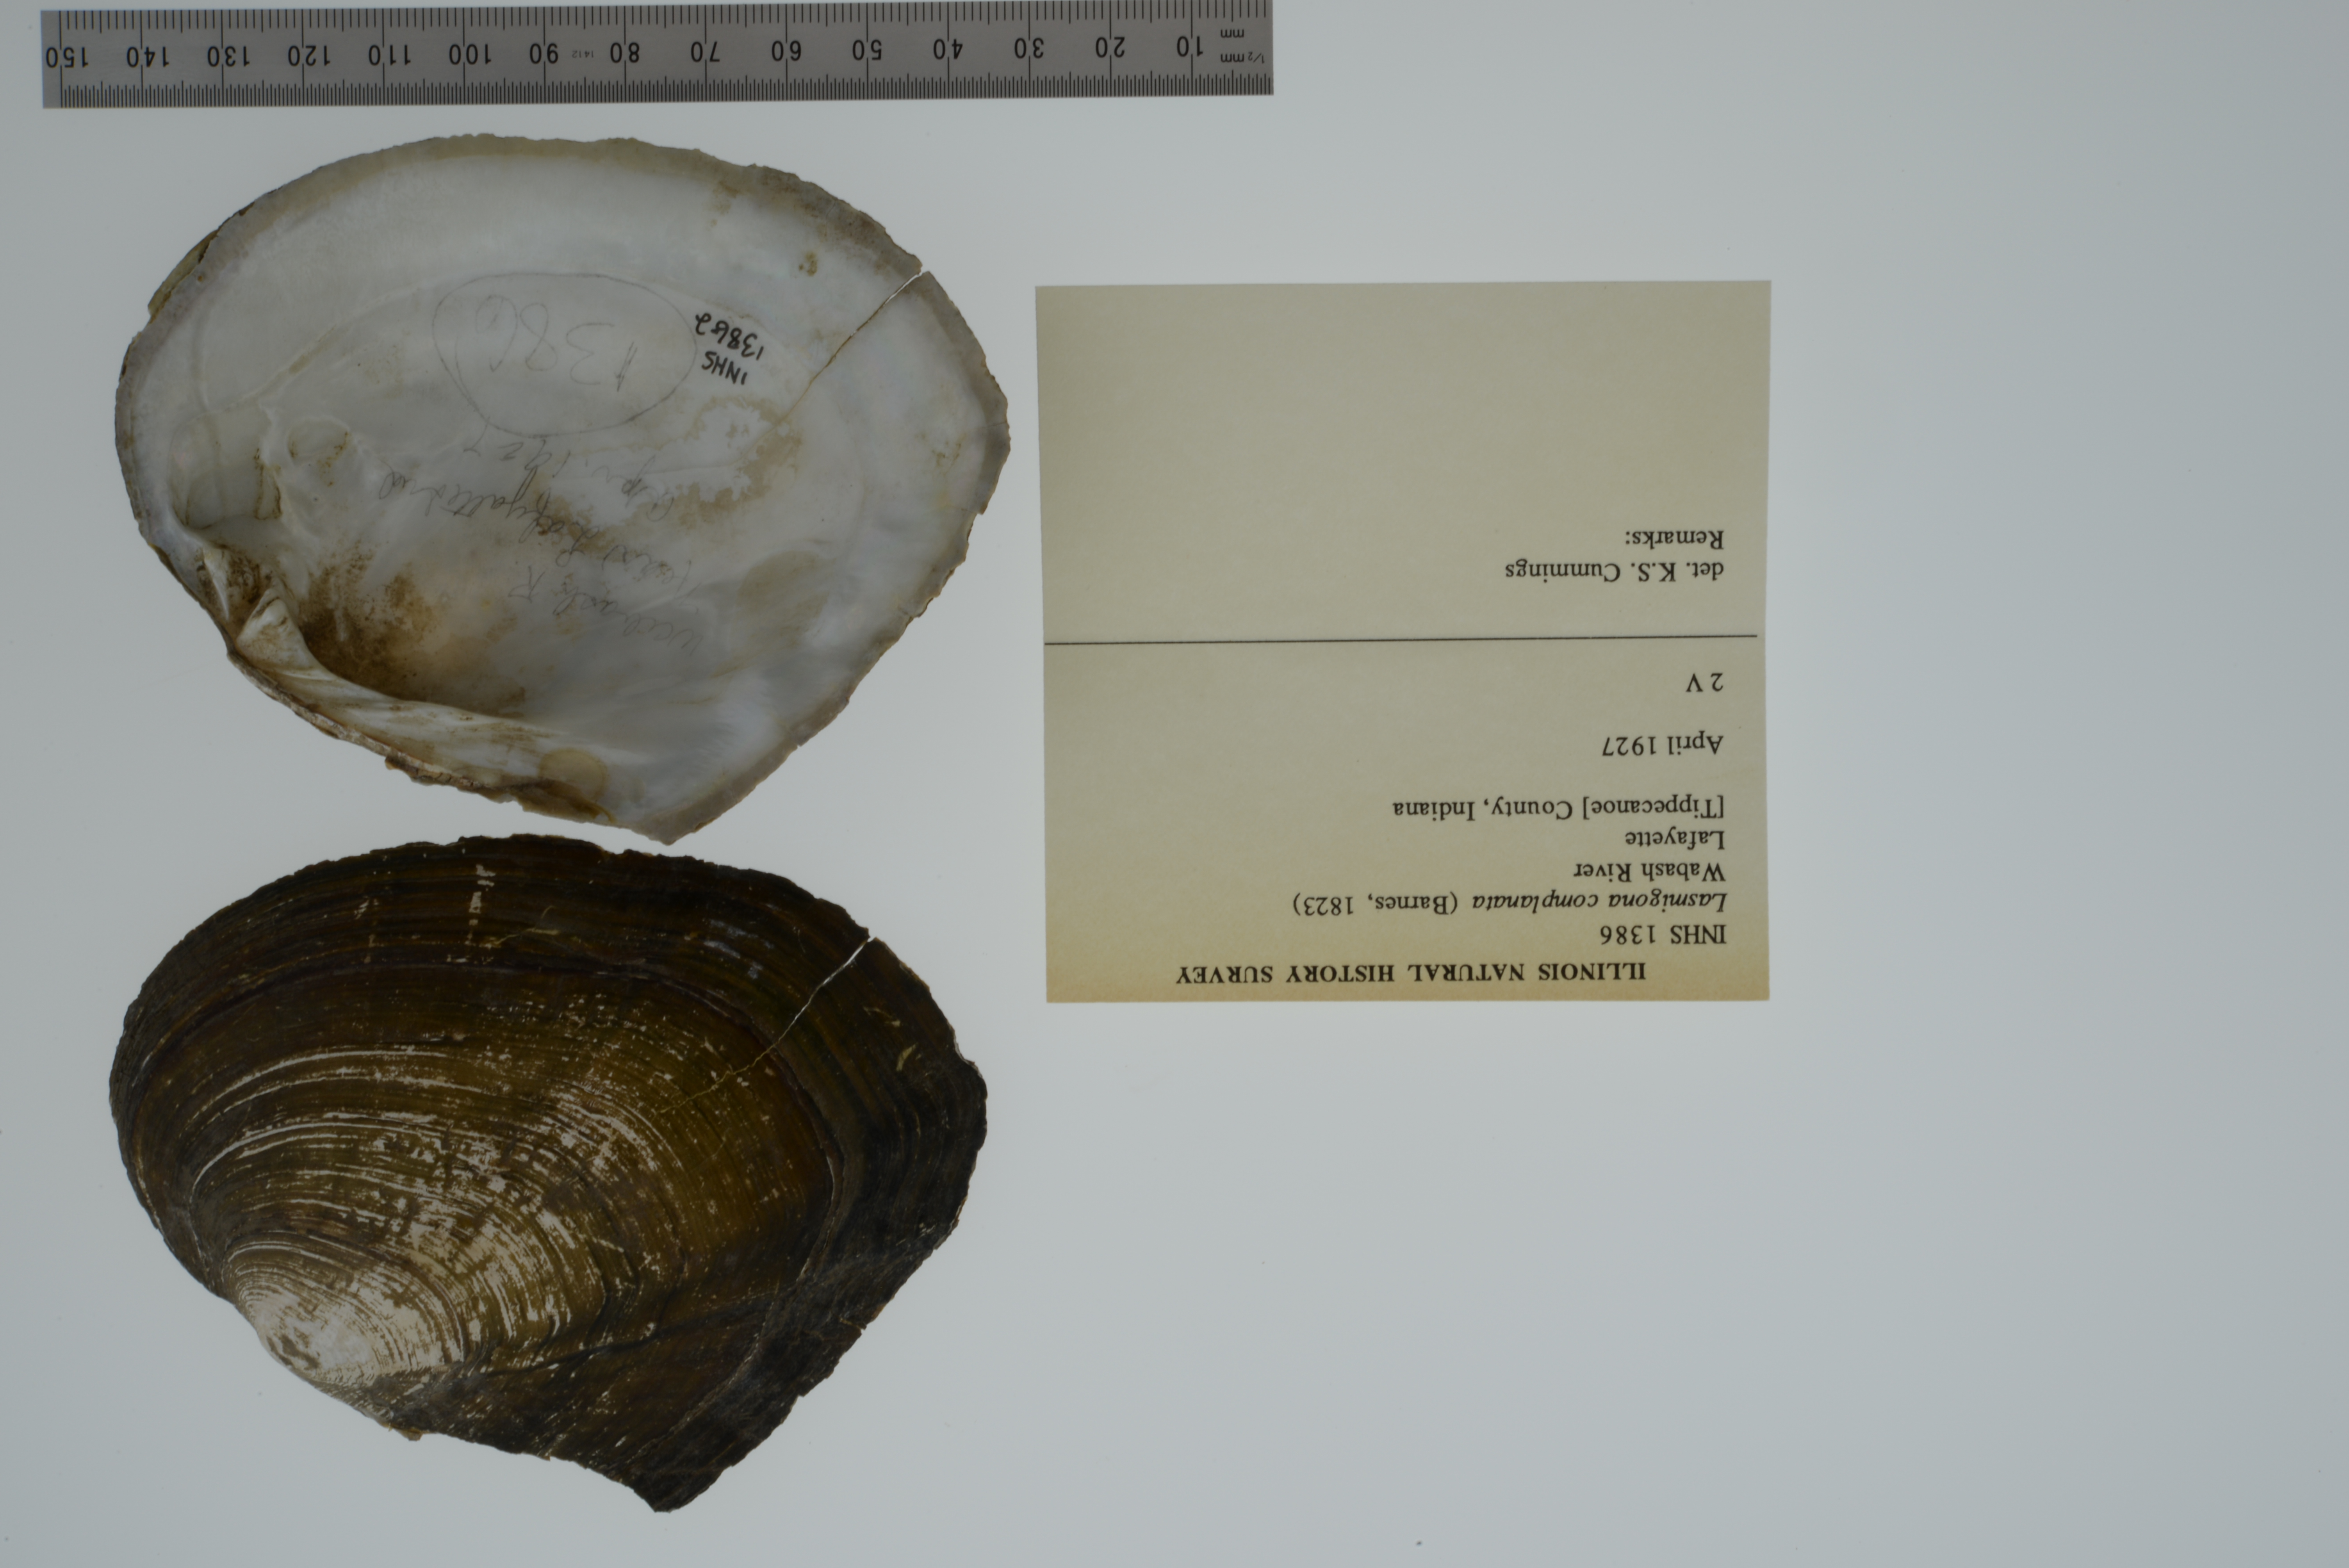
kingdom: Animalia
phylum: Mollusca
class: Bivalvia
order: Unionida
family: Unionidae
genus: Lasmigona
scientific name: Lasmigona complanata
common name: White heelsplitter
